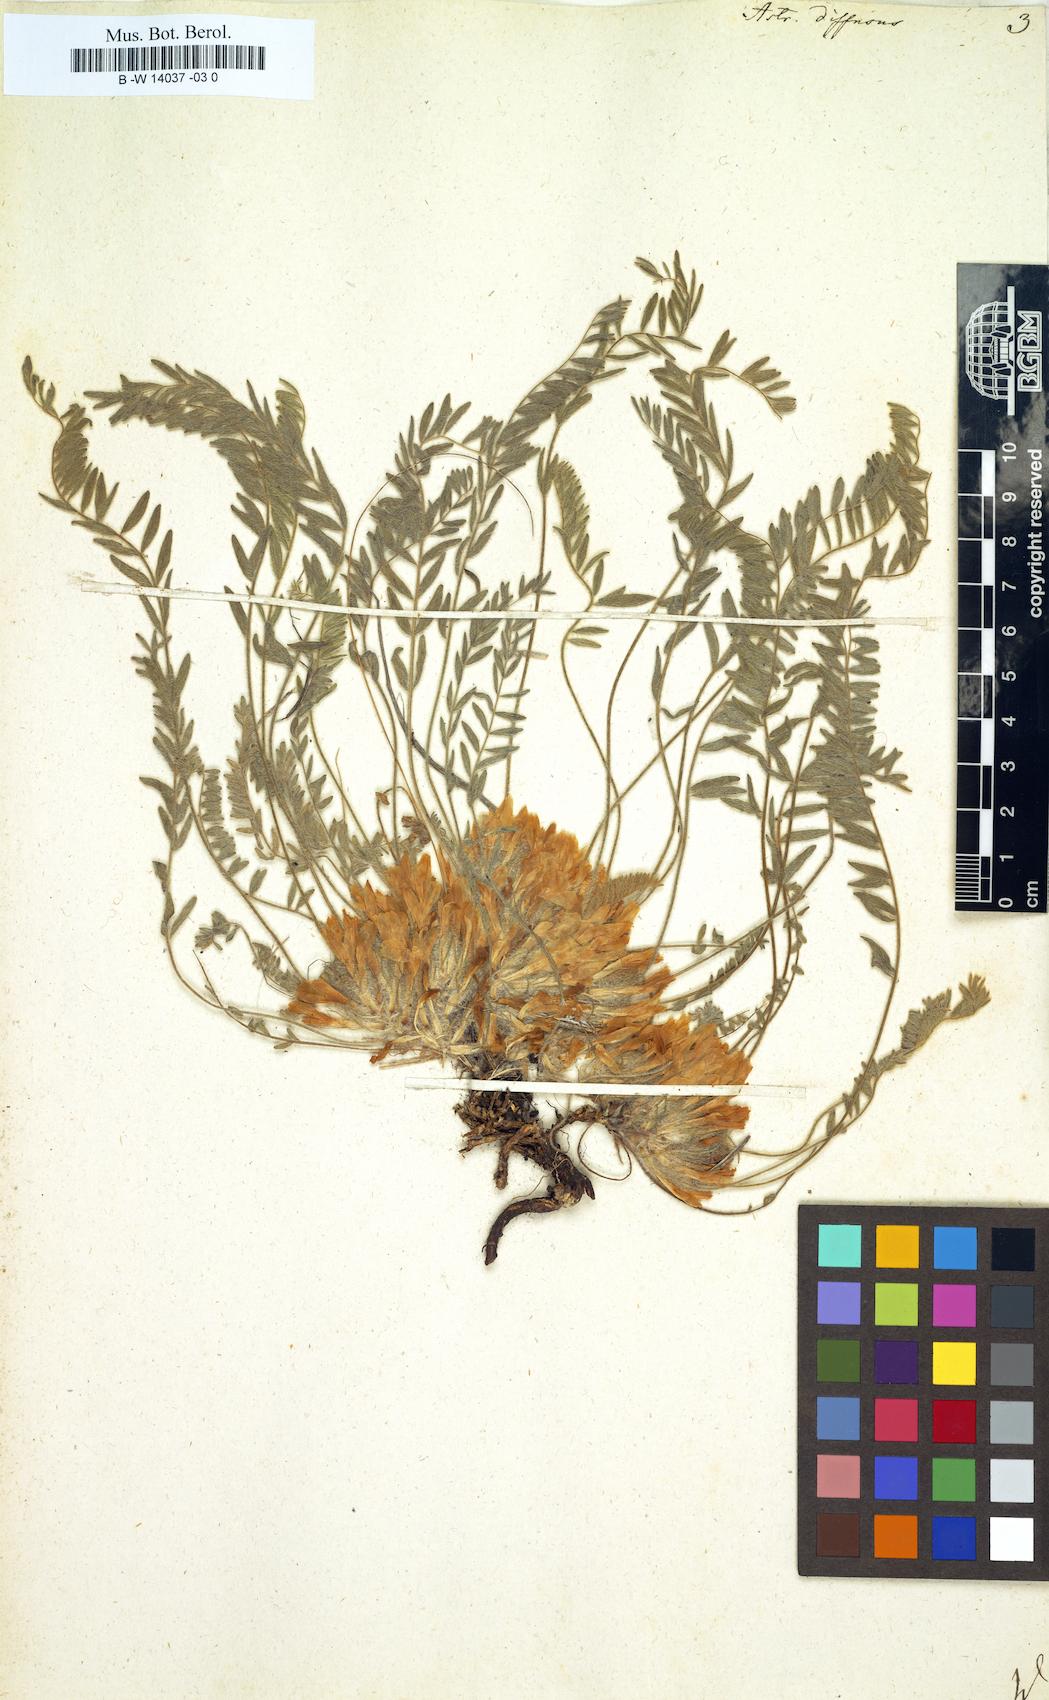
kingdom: Plantae
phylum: Tracheophyta
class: Magnoliopsida
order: Fabales
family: Fabaceae
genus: Astragalus
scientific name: Astragalus dolichophyllus
